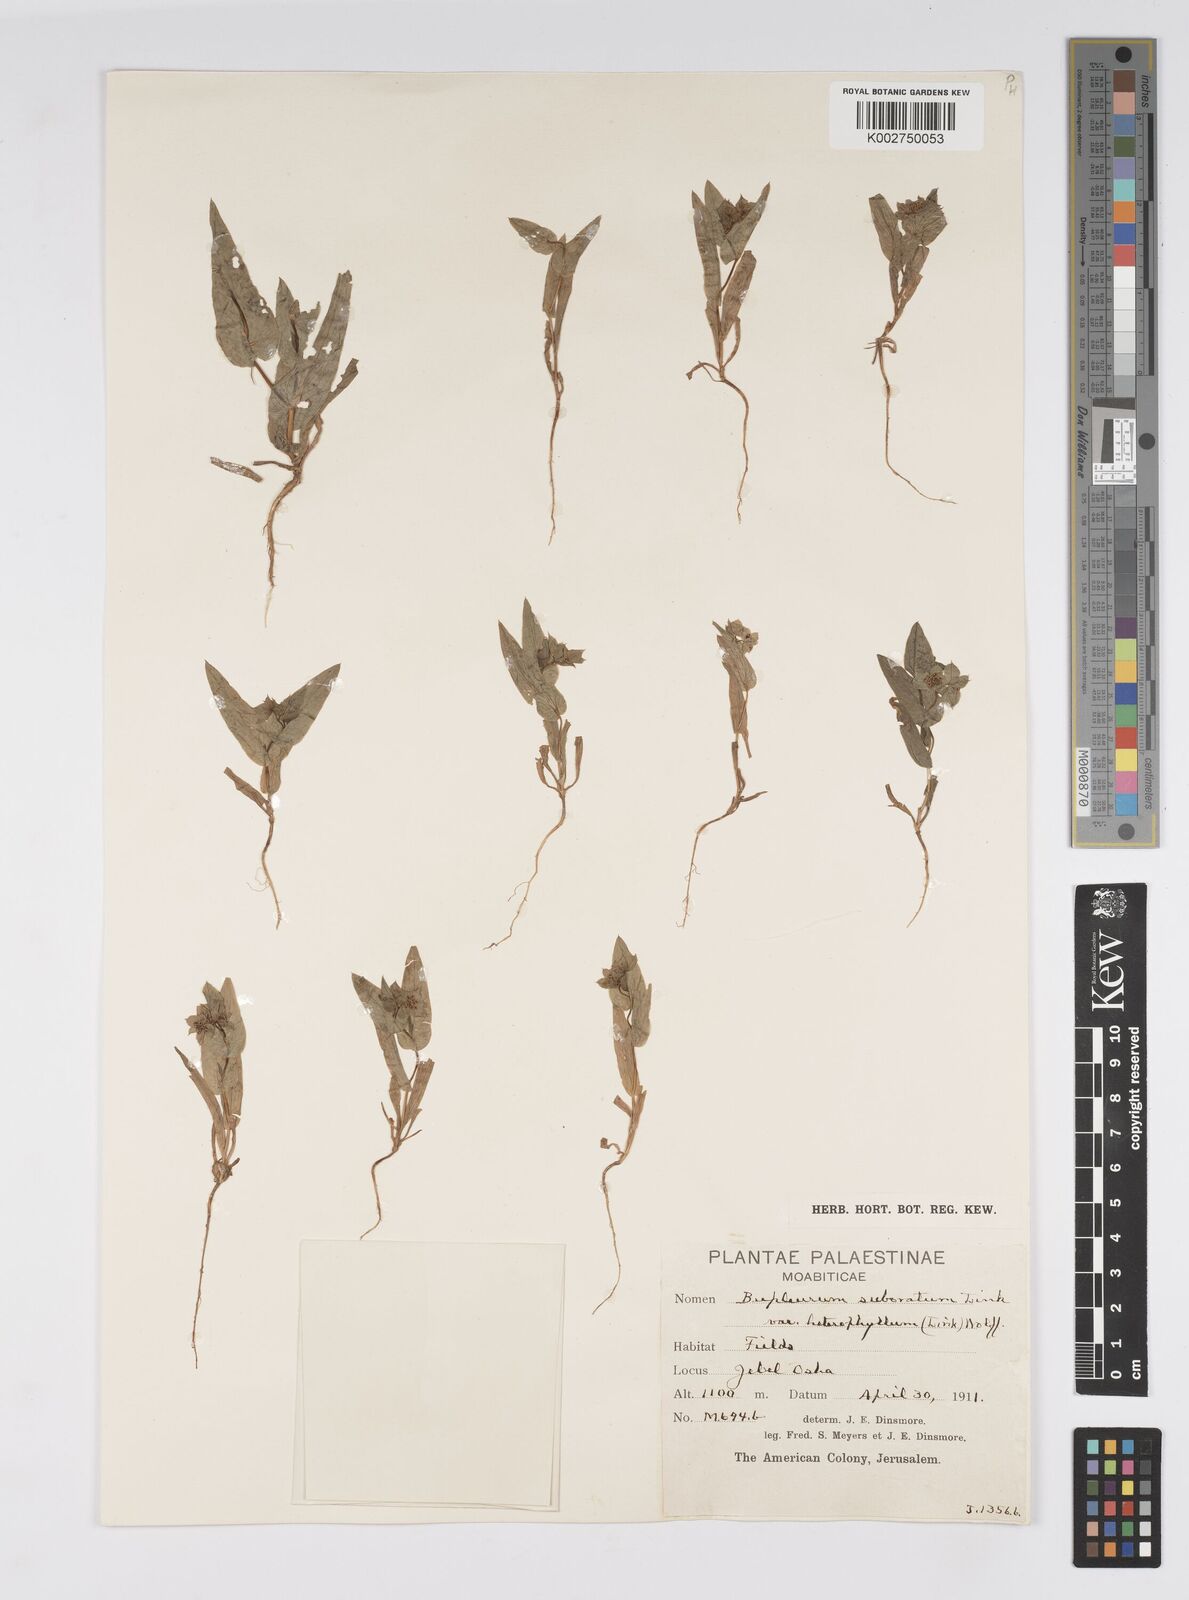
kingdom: Plantae
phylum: Tracheophyta
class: Magnoliopsida
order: Apiales
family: Apiaceae
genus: Bupleurum
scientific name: Bupleurum
